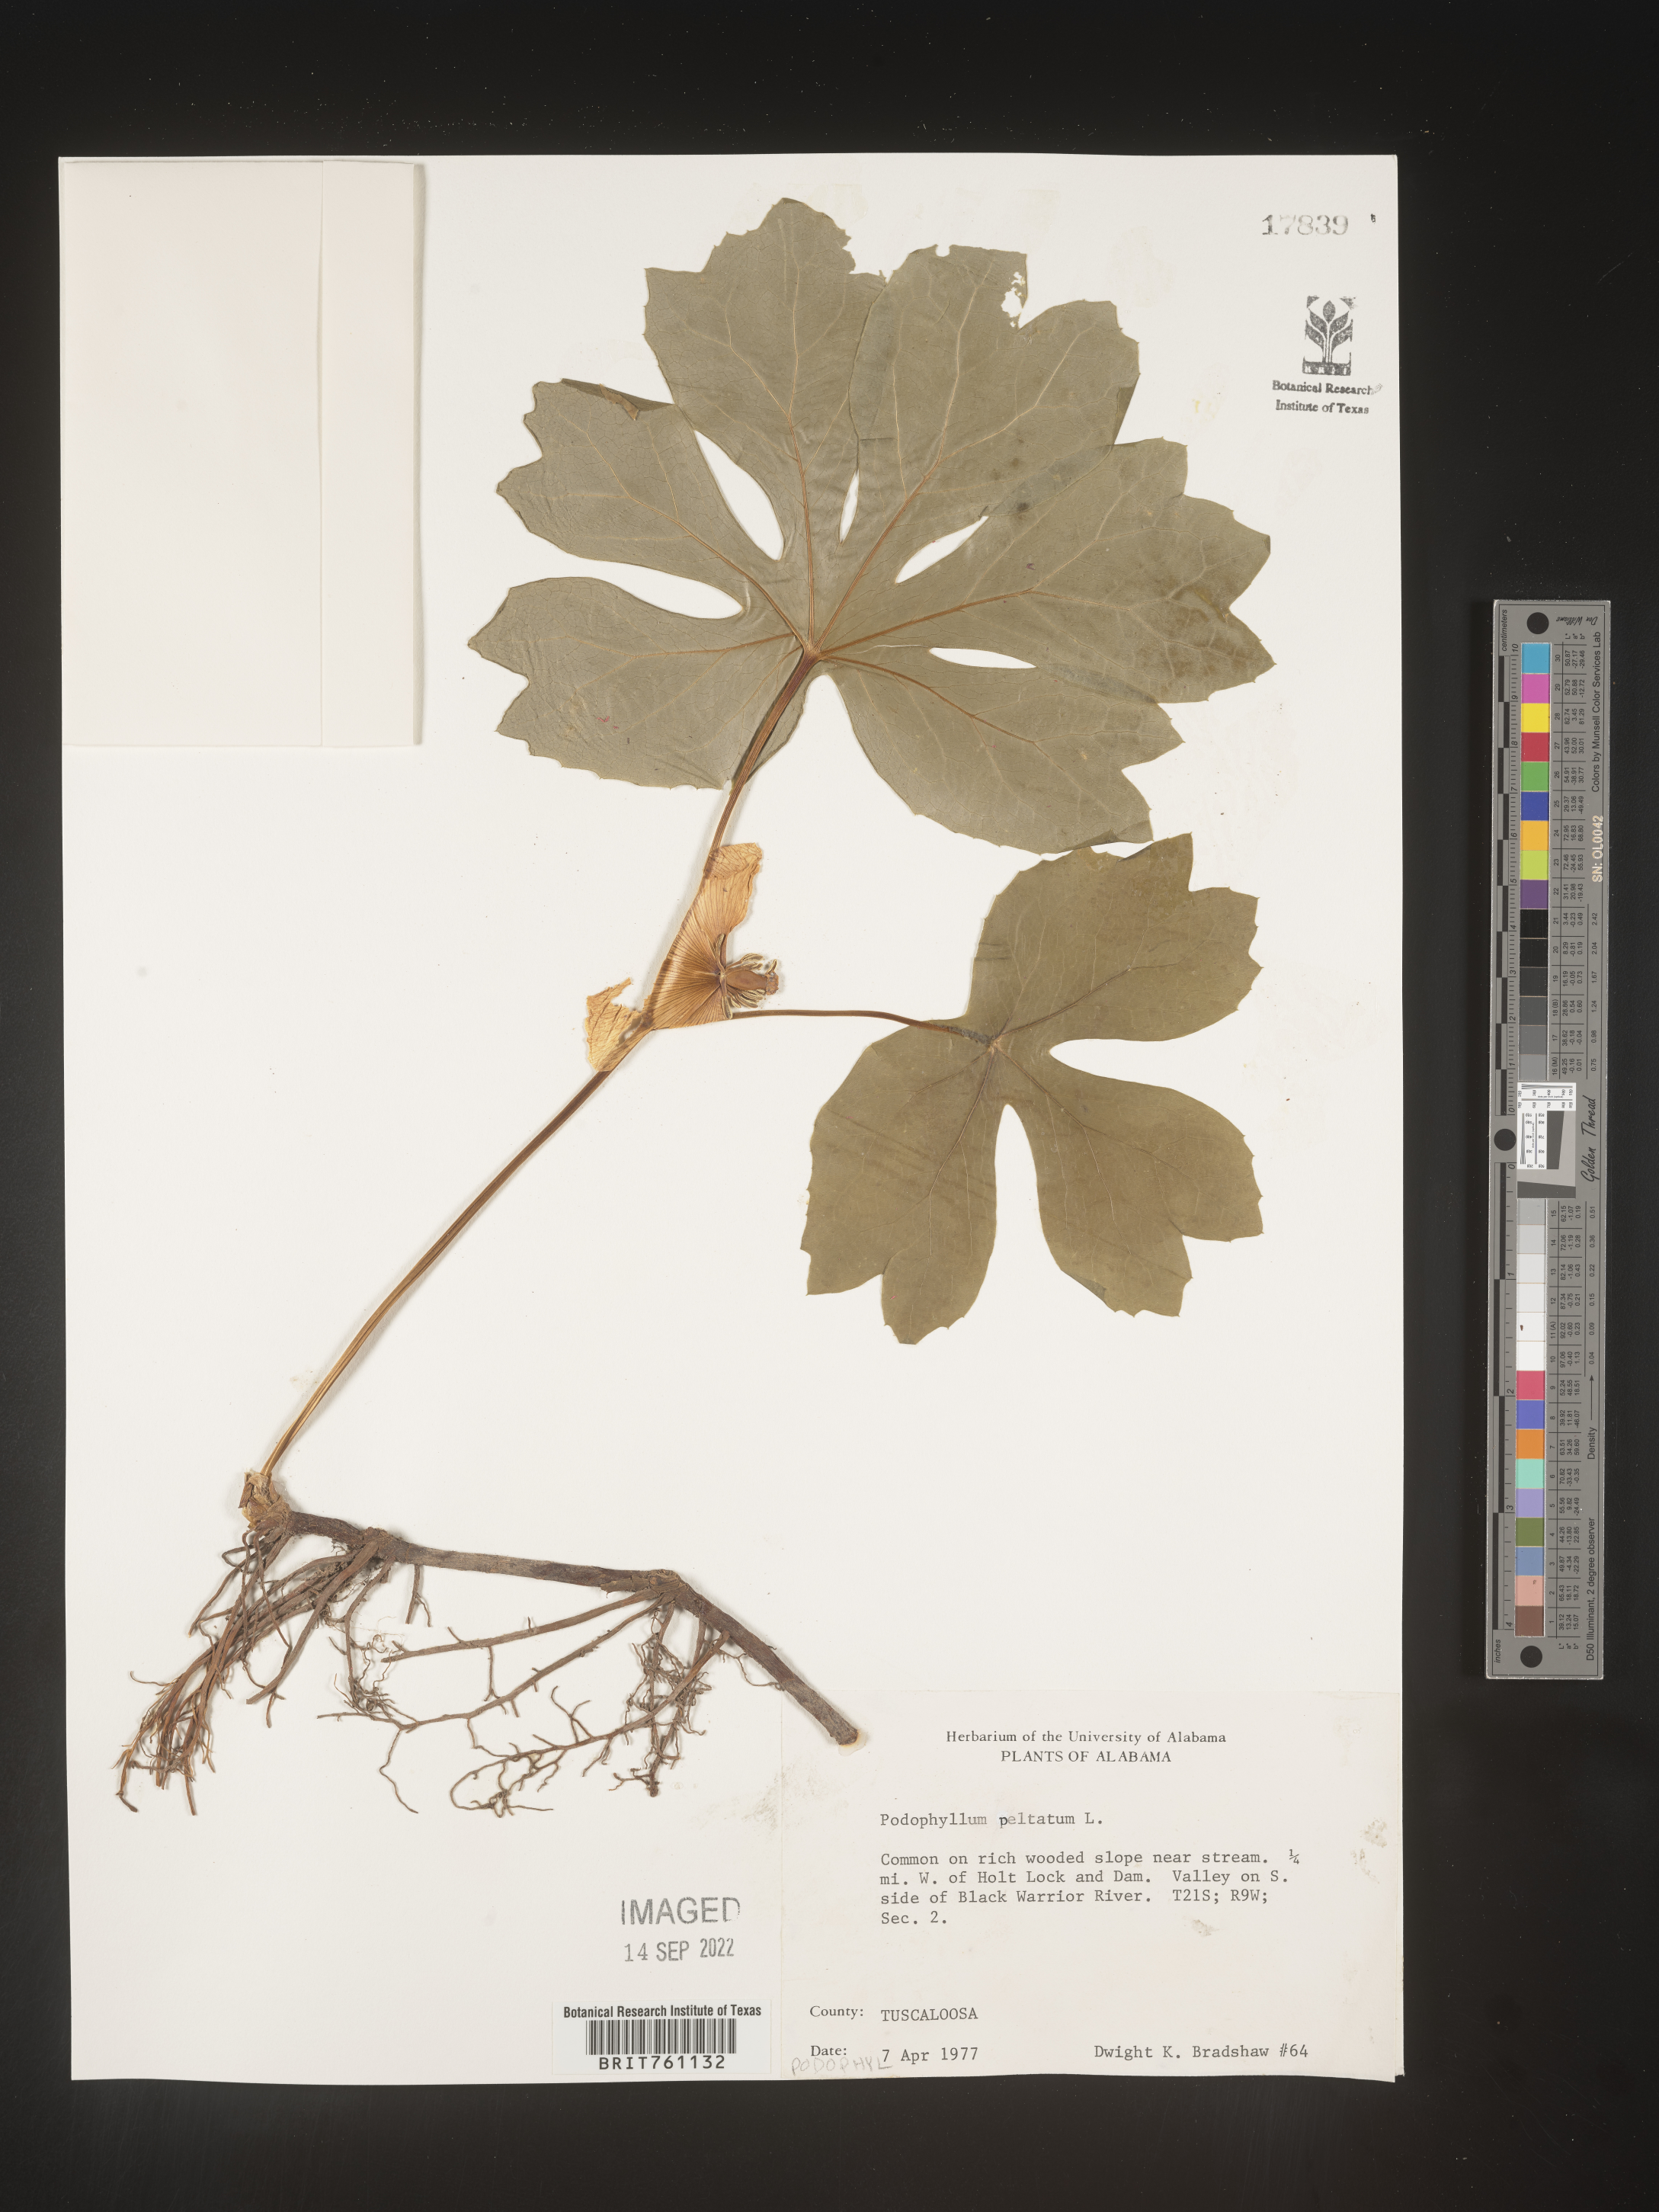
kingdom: Plantae
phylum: Tracheophyta
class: Magnoliopsida
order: Ranunculales
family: Berberidaceae
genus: Podophyllum
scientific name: Podophyllum peltatum
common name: Wild mandrake
